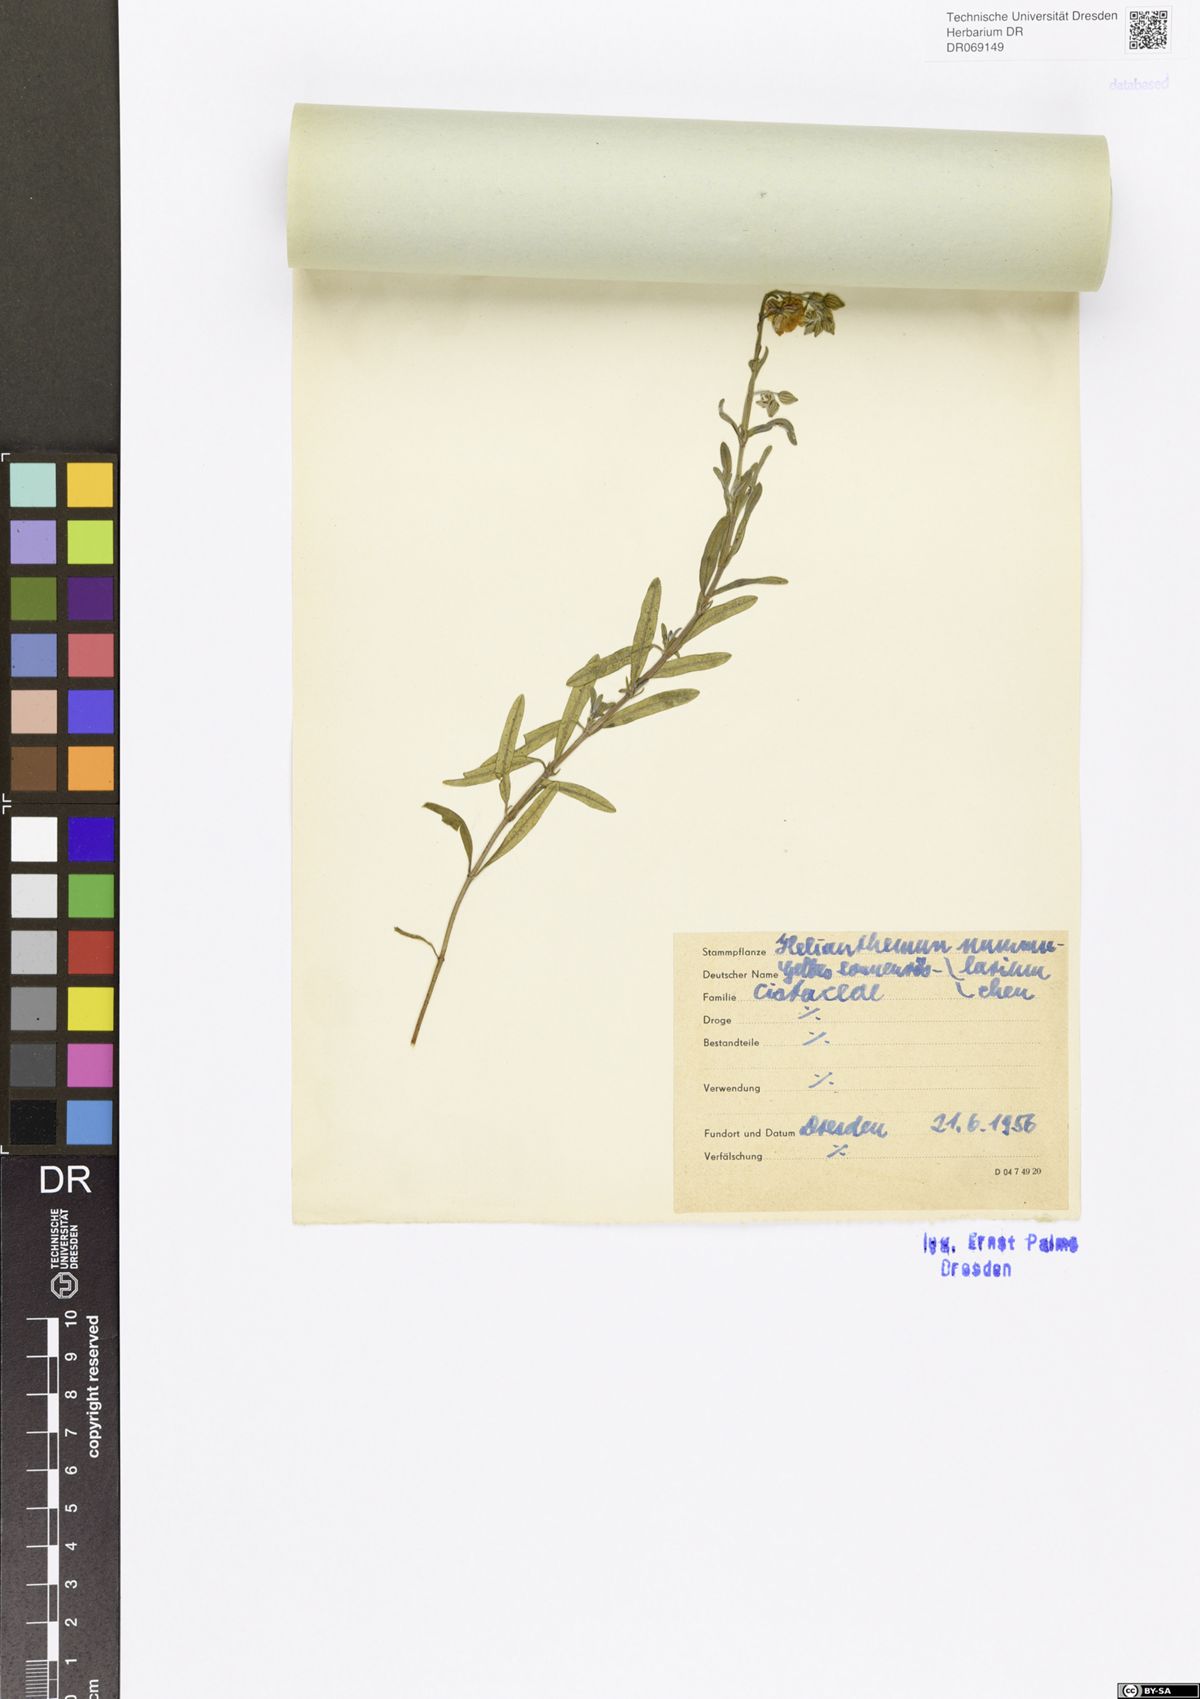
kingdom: Plantae
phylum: Tracheophyta
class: Magnoliopsida
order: Malvales
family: Cistaceae
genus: Helianthemum
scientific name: Helianthemum nummularium
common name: Common rock-rose
